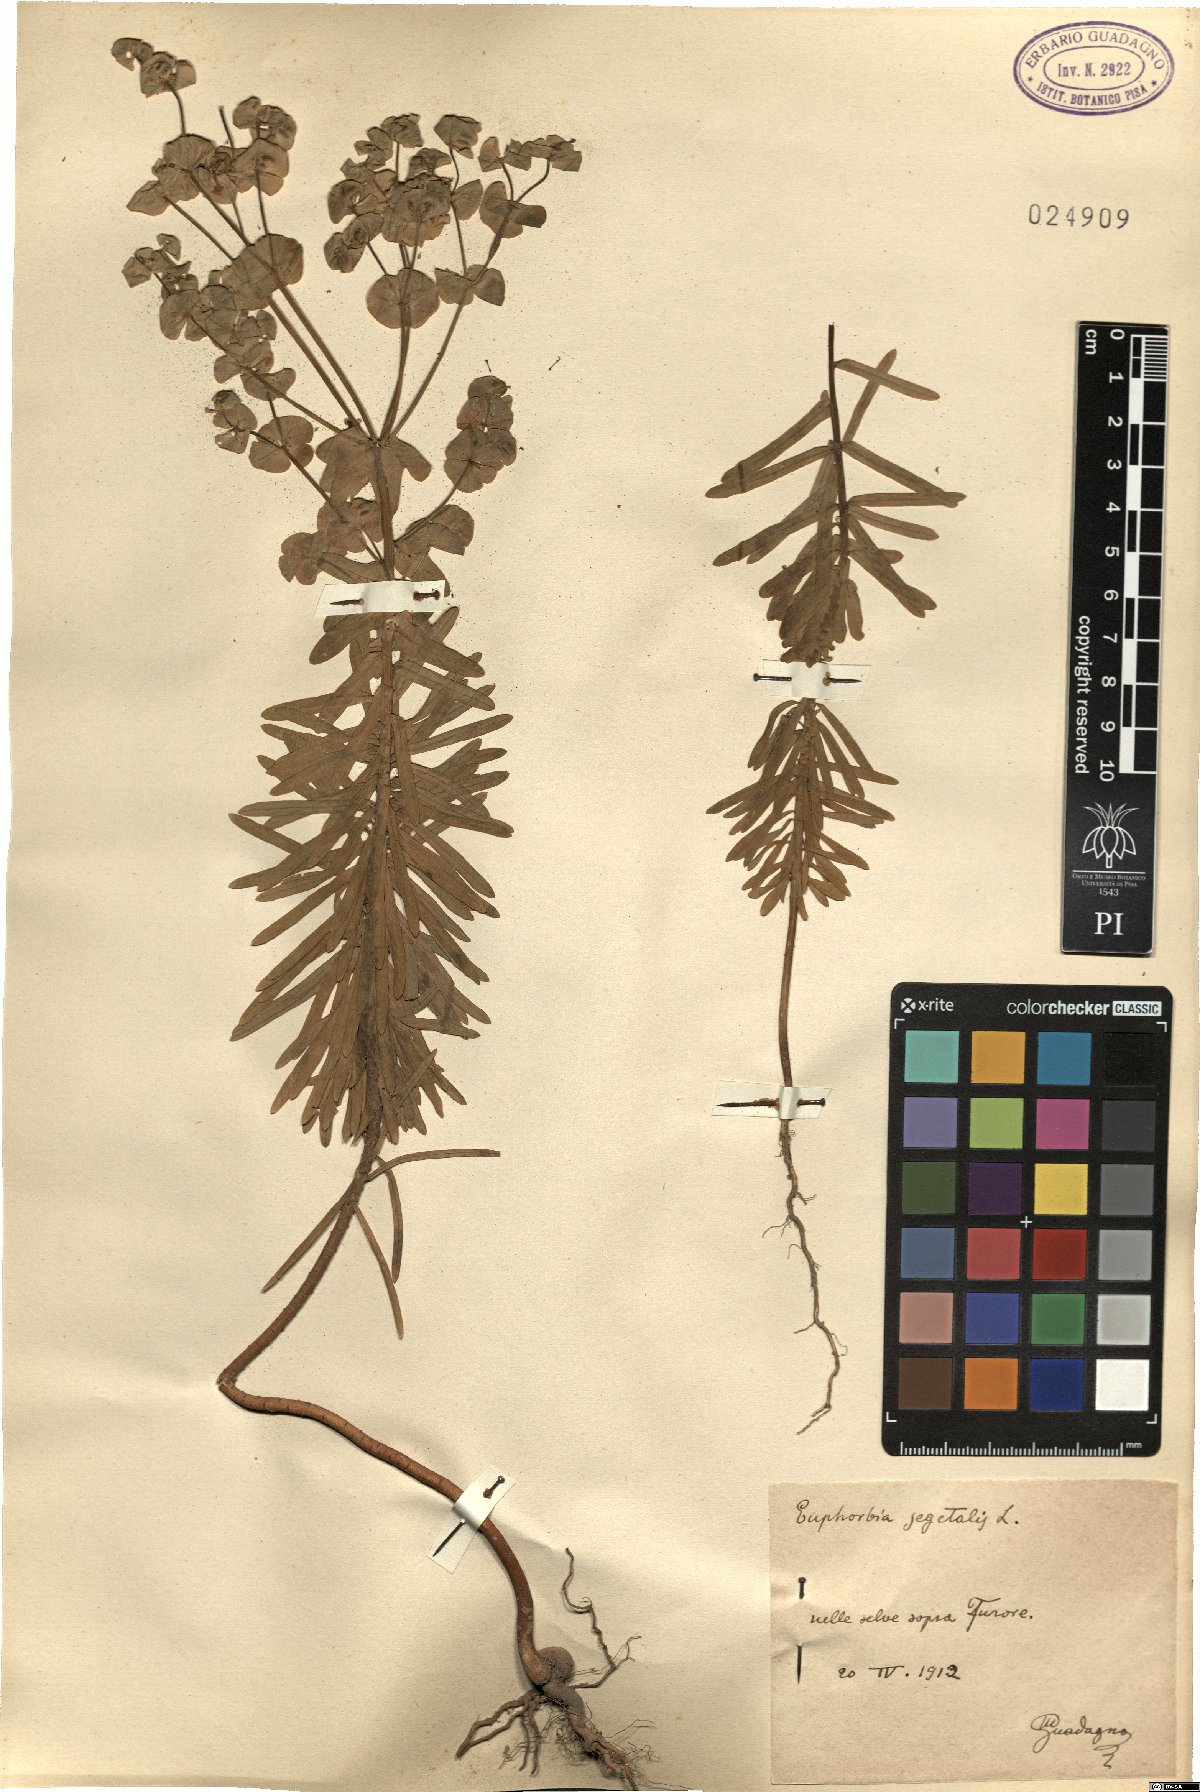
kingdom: Plantae
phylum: Tracheophyta
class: Magnoliopsida
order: Malpighiales
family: Euphorbiaceae
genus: Euphorbia
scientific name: Euphorbia segetalis
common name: Corn spurge
